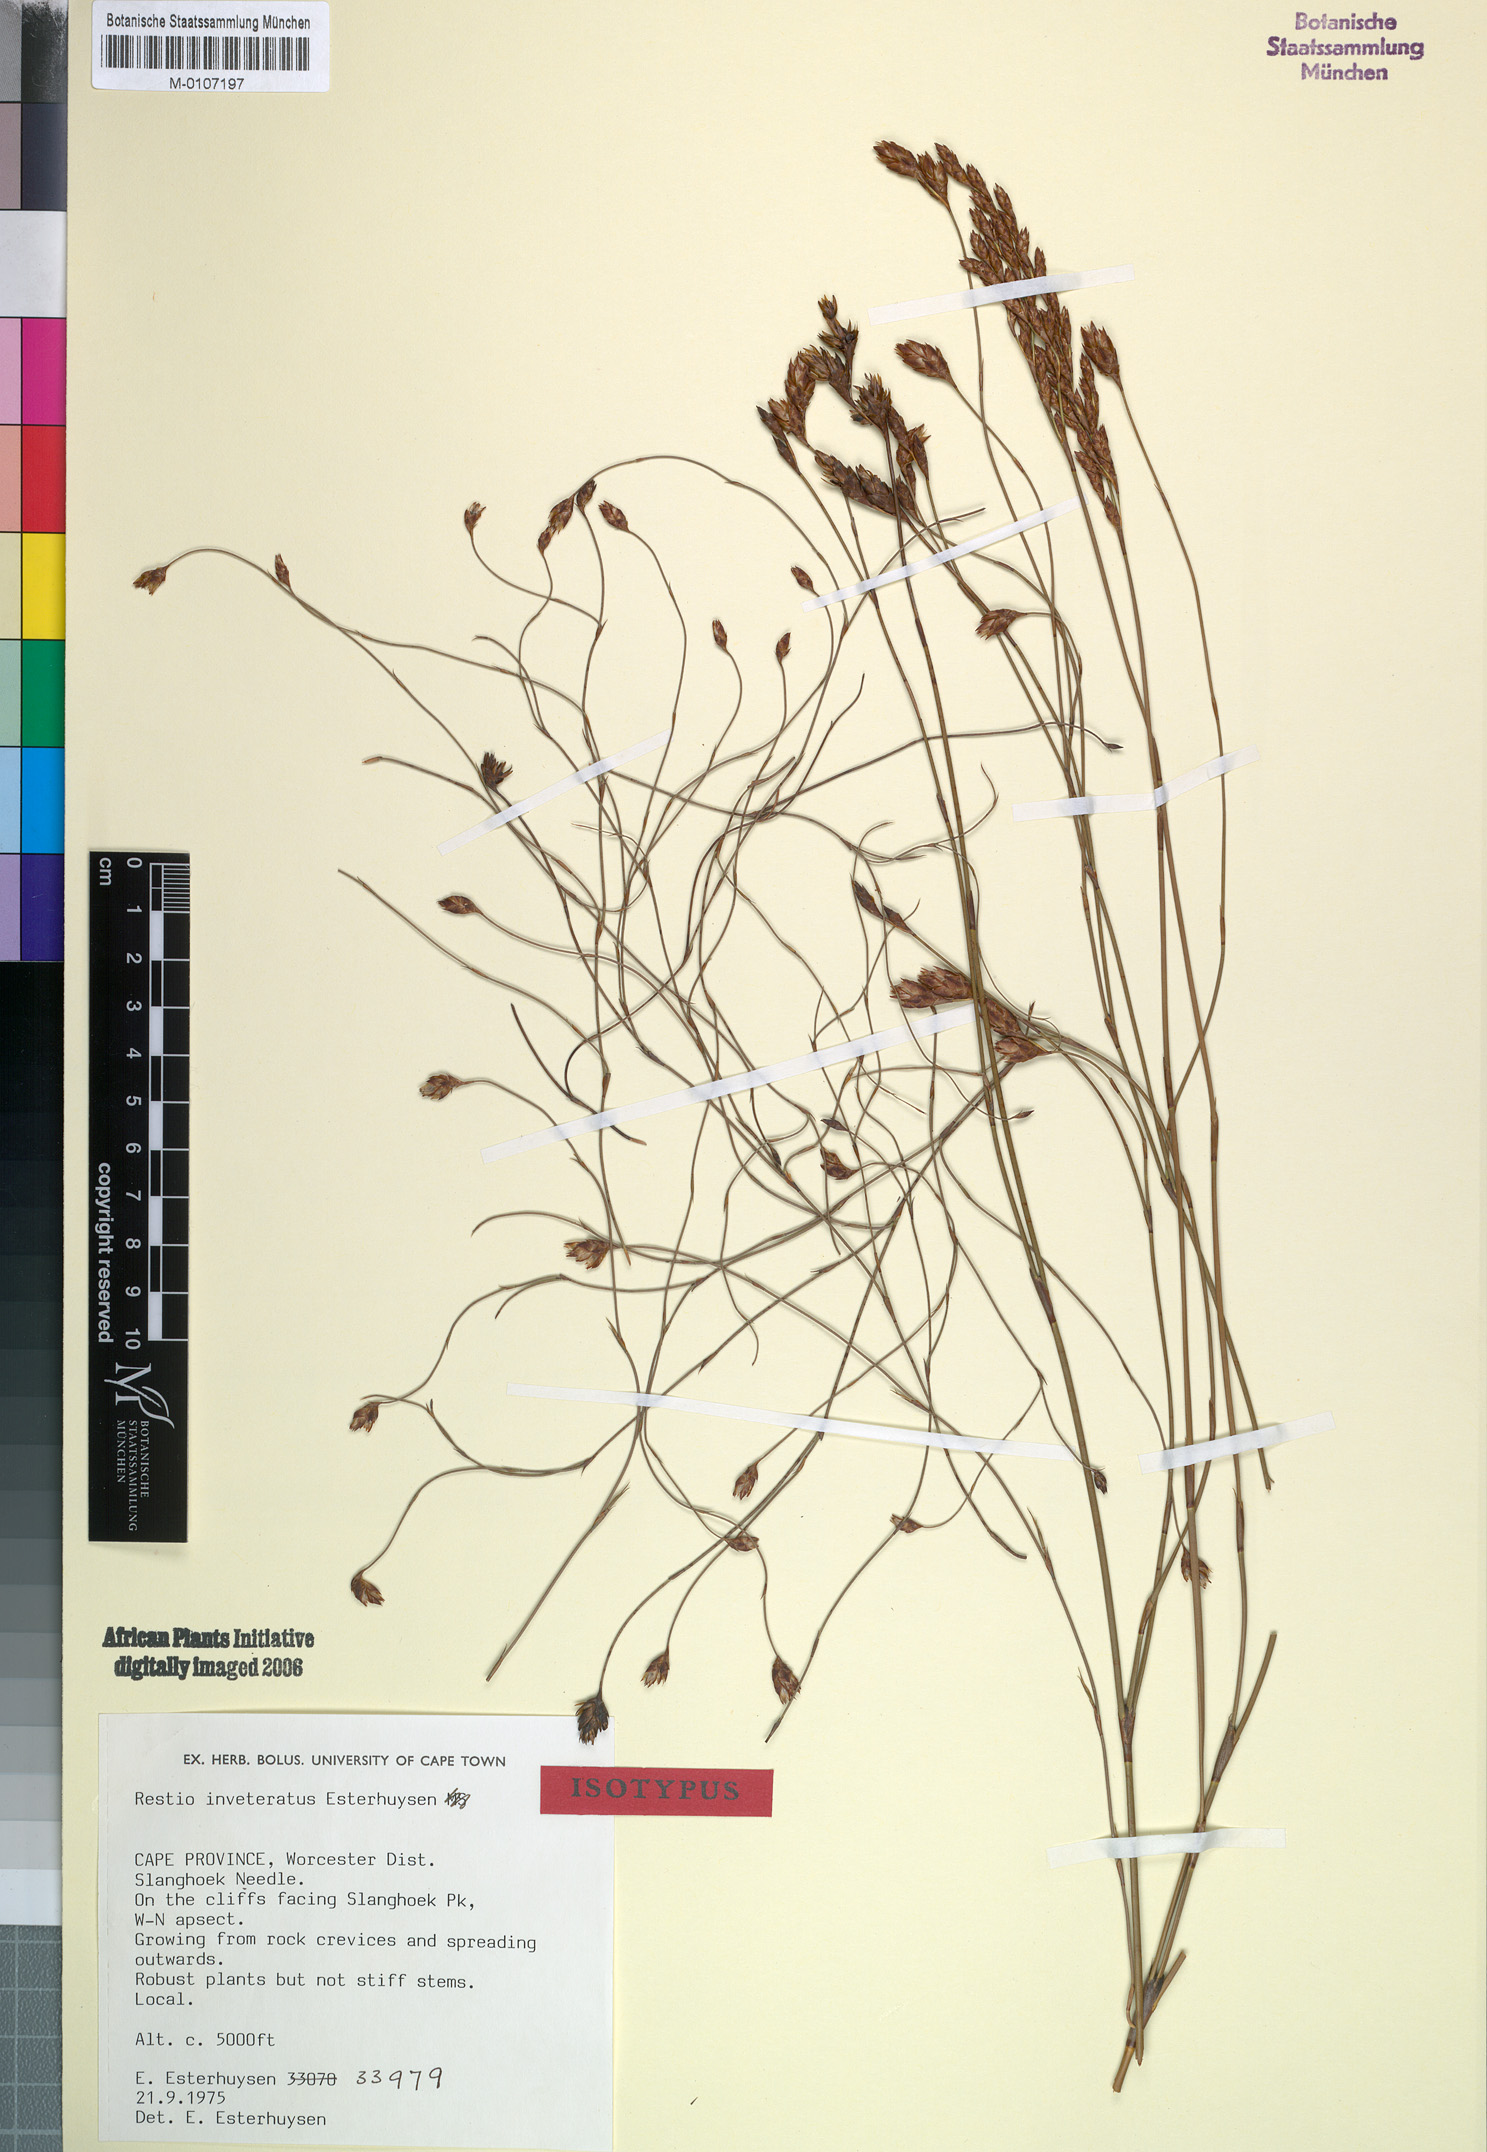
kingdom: Plantae
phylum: Tracheophyta
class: Liliopsida
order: Poales
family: Restionaceae
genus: Restio
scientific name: Restio inveteratus
